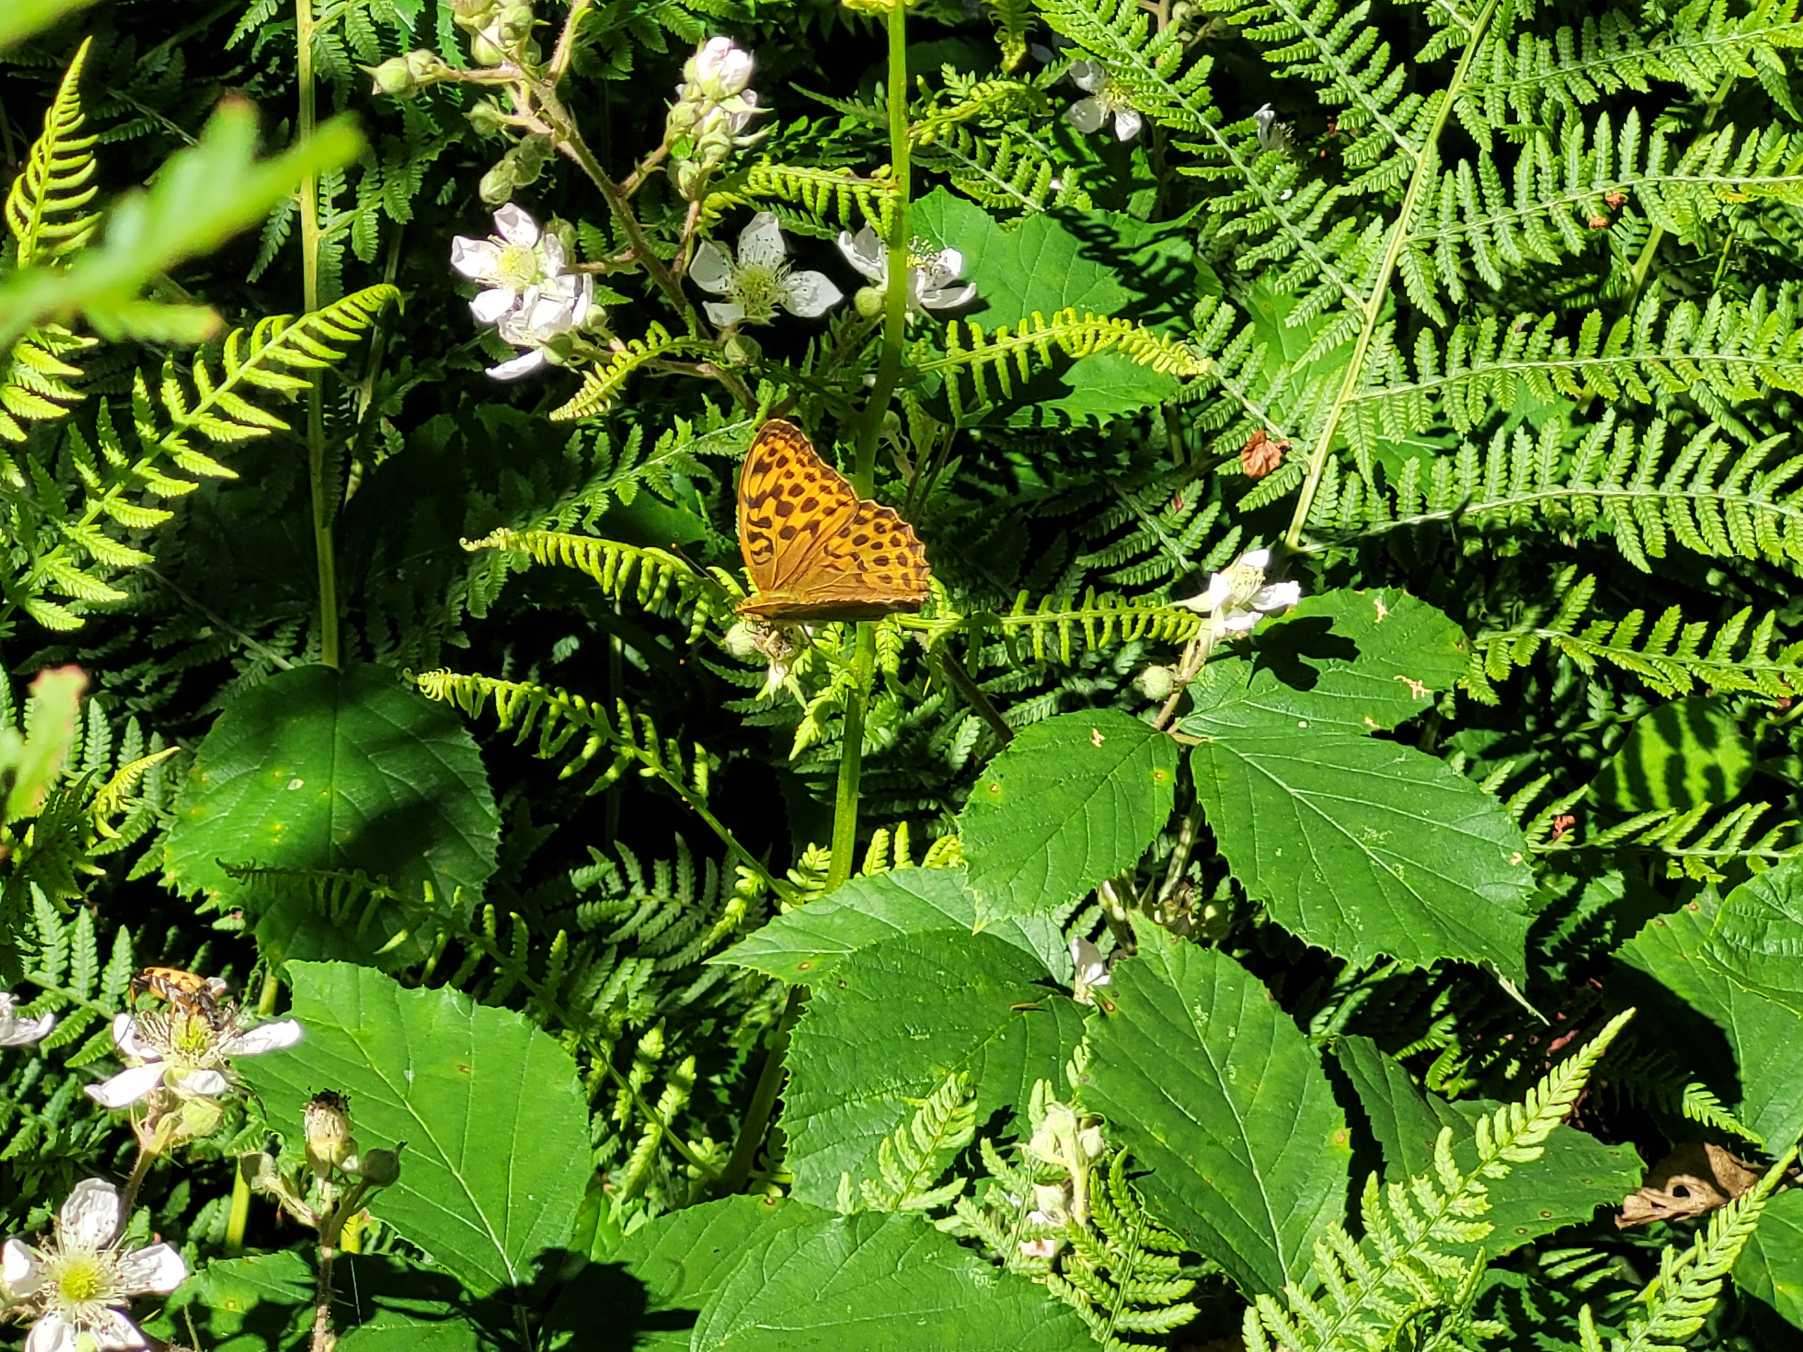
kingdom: Animalia
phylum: Arthropoda
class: Insecta
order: Lepidoptera
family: Nymphalidae
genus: Argynnis
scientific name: Argynnis paphia
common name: Kejserkåbe
